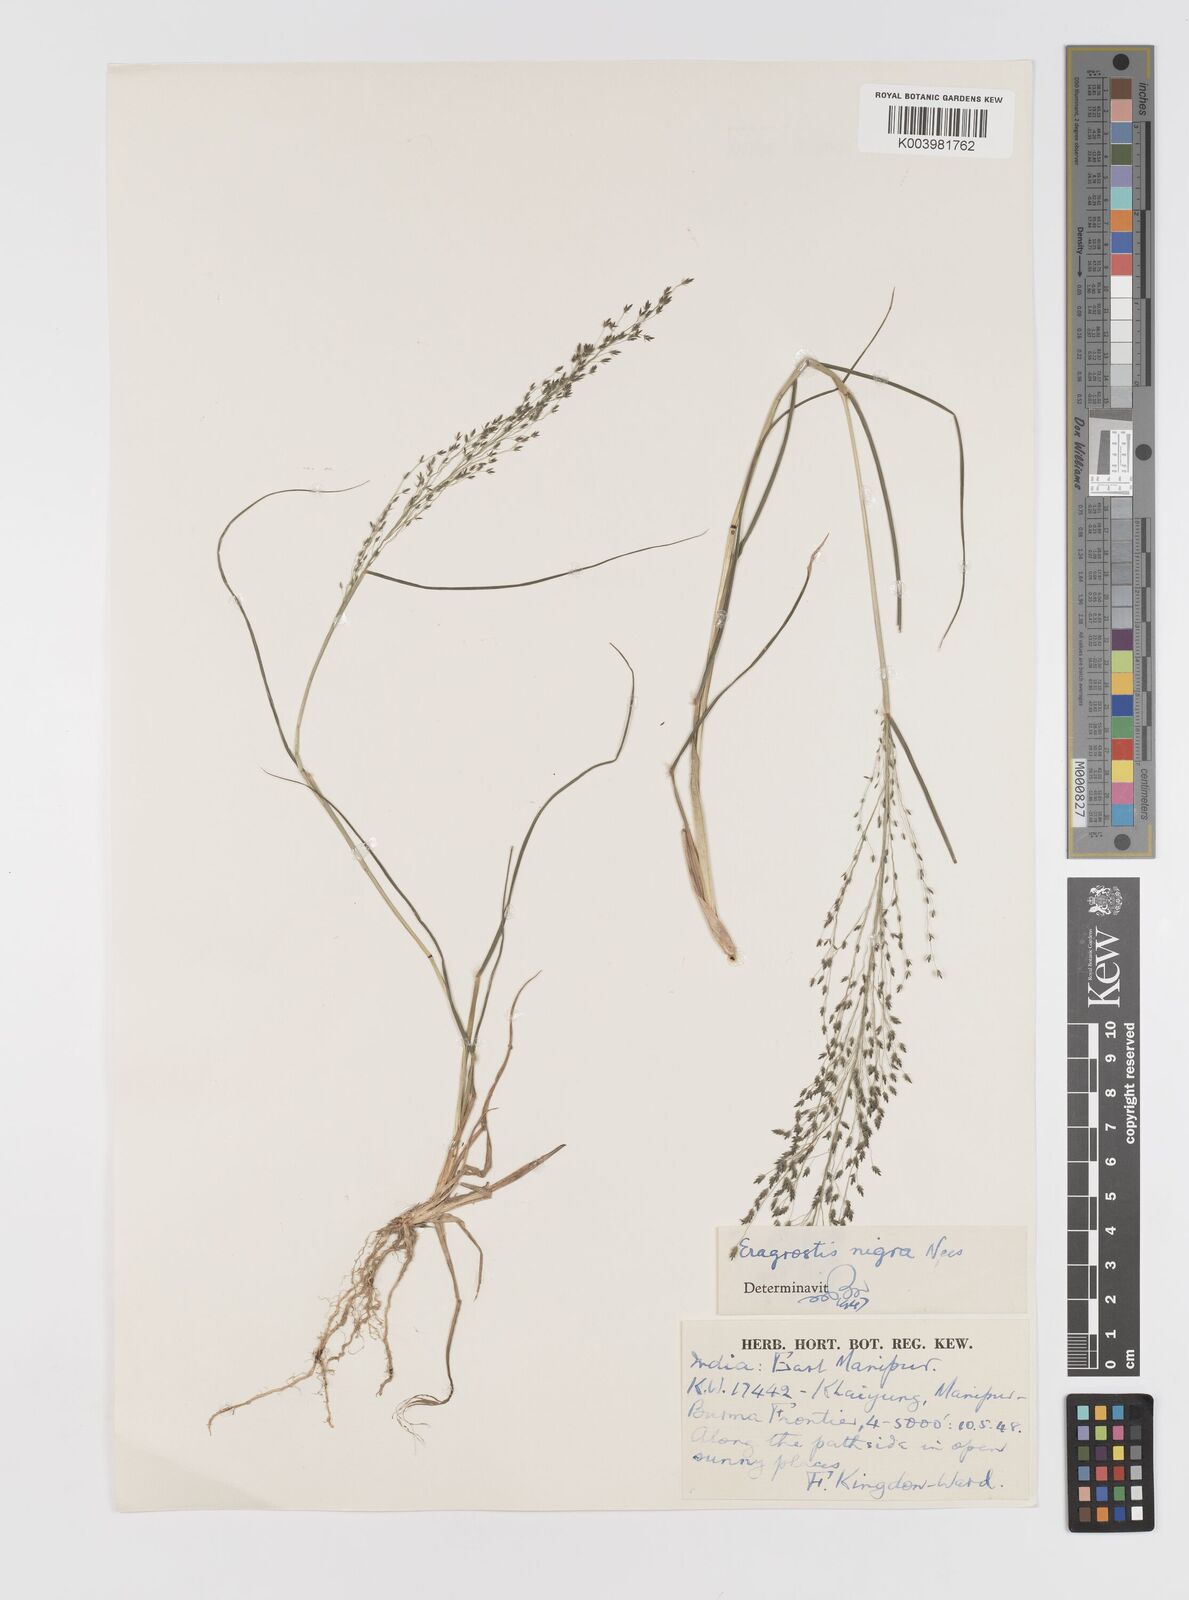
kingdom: Plantae
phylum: Tracheophyta
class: Liliopsida
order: Poales
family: Poaceae
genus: Eragrostis
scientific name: Eragrostis nigra
